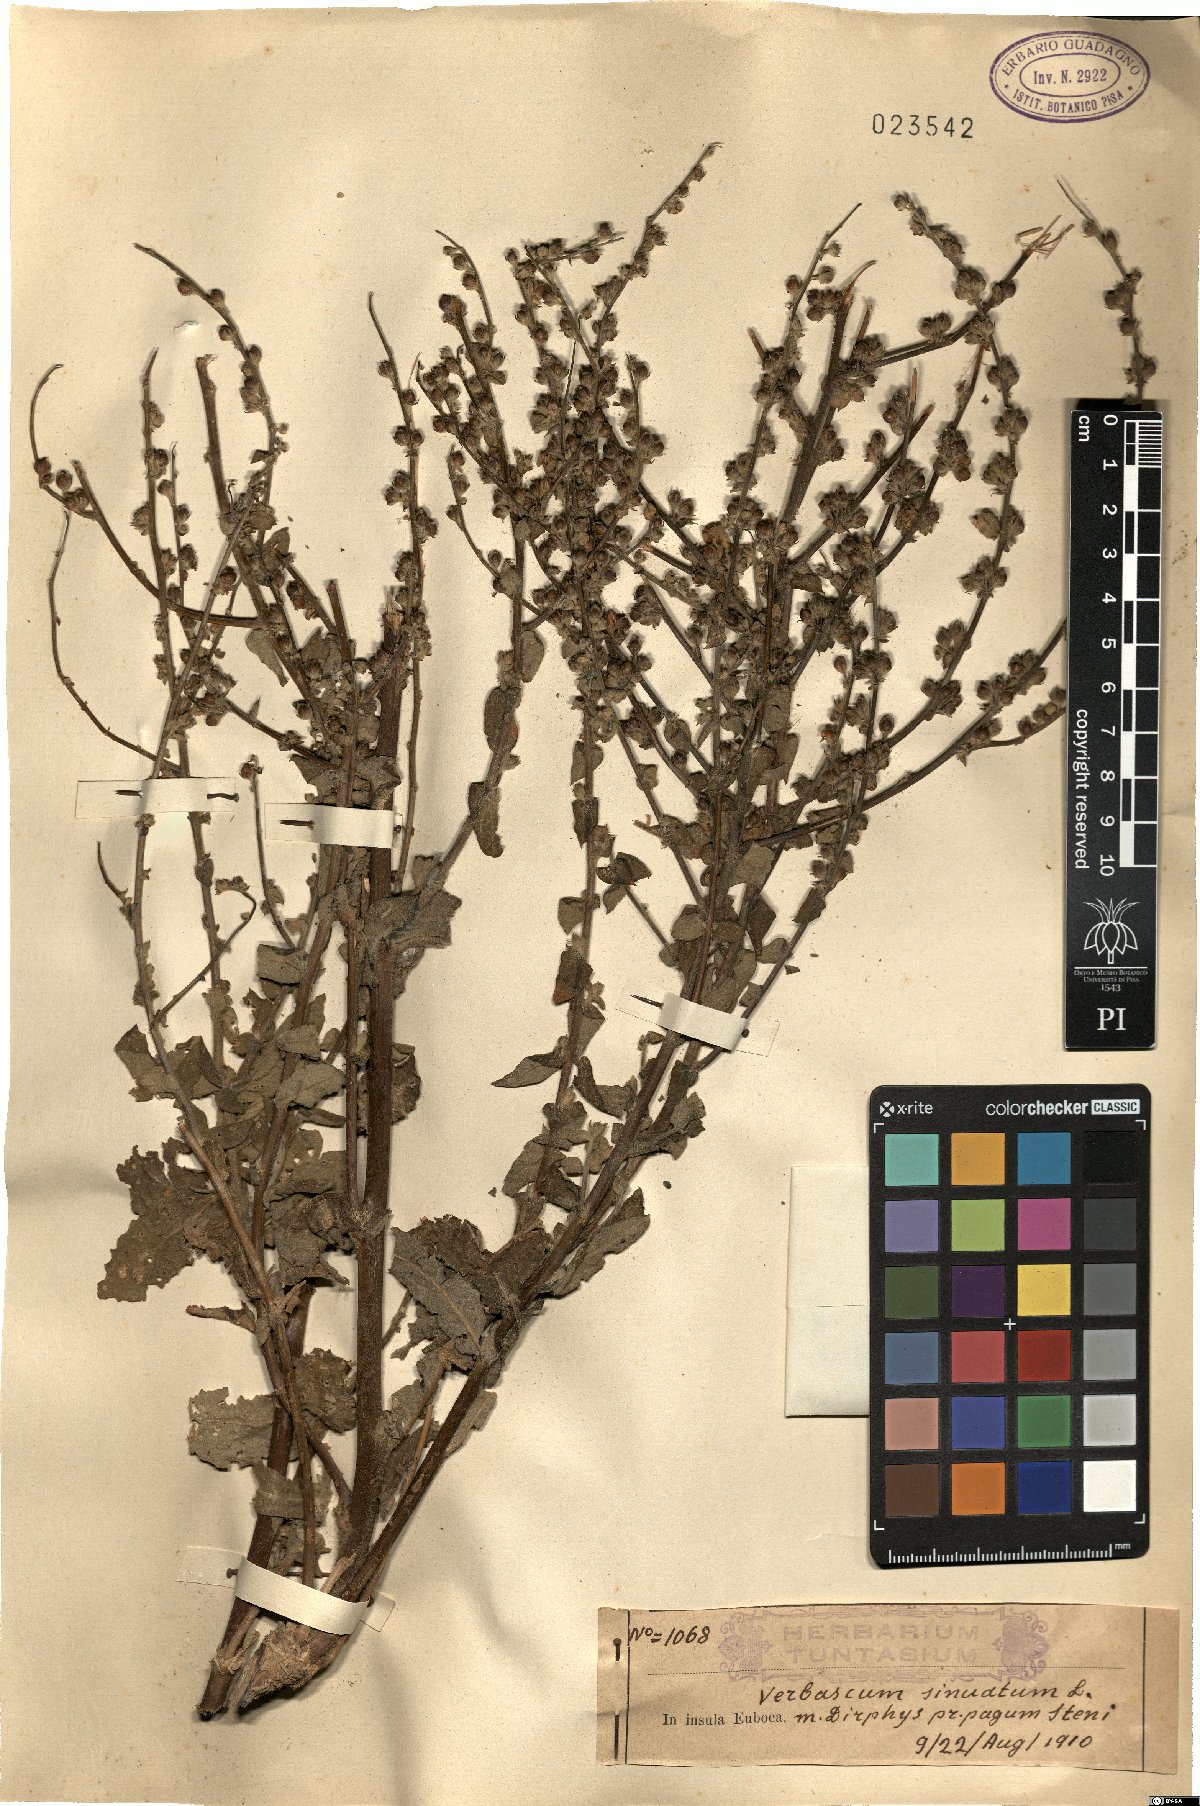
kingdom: Plantae
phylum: Tracheophyta
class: Magnoliopsida
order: Lamiales
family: Scrophulariaceae
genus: Verbascum
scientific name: Verbascum sinuatum
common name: Wavyleaf mullein
